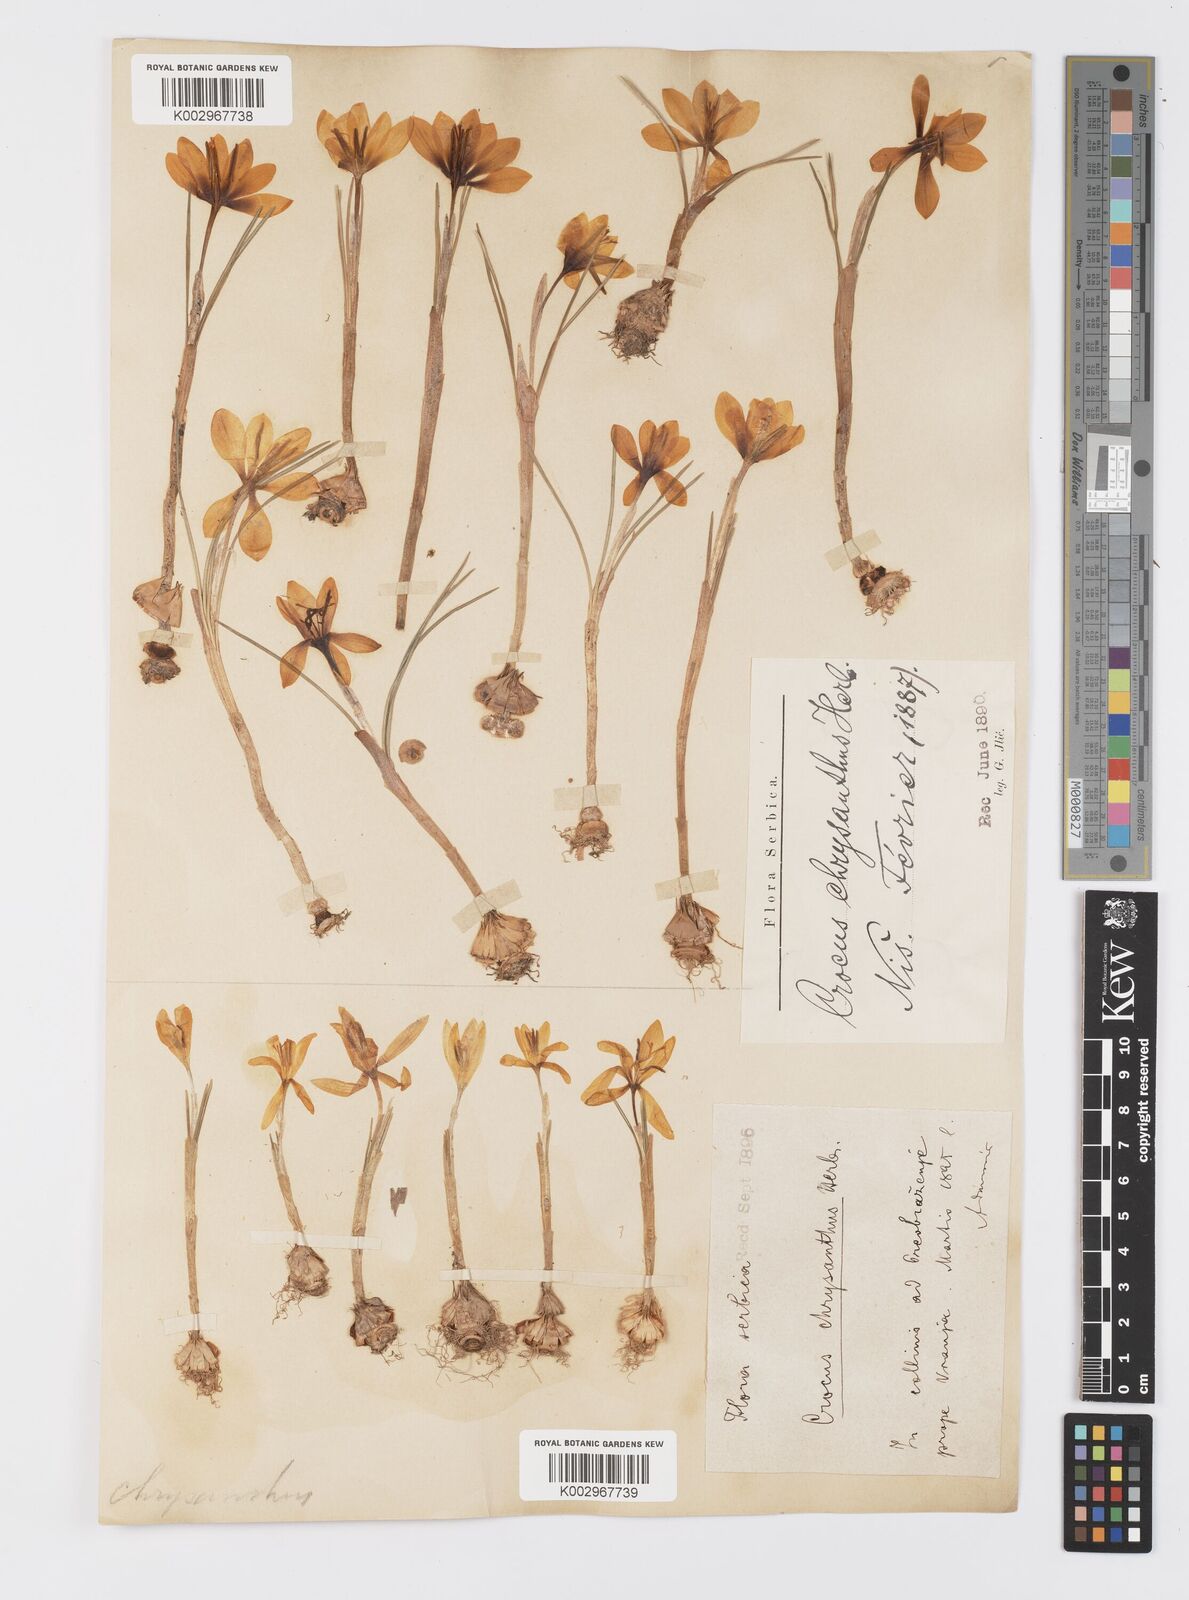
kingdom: Plantae
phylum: Tracheophyta
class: Liliopsida
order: Asparagales
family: Iridaceae
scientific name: Iridaceae
